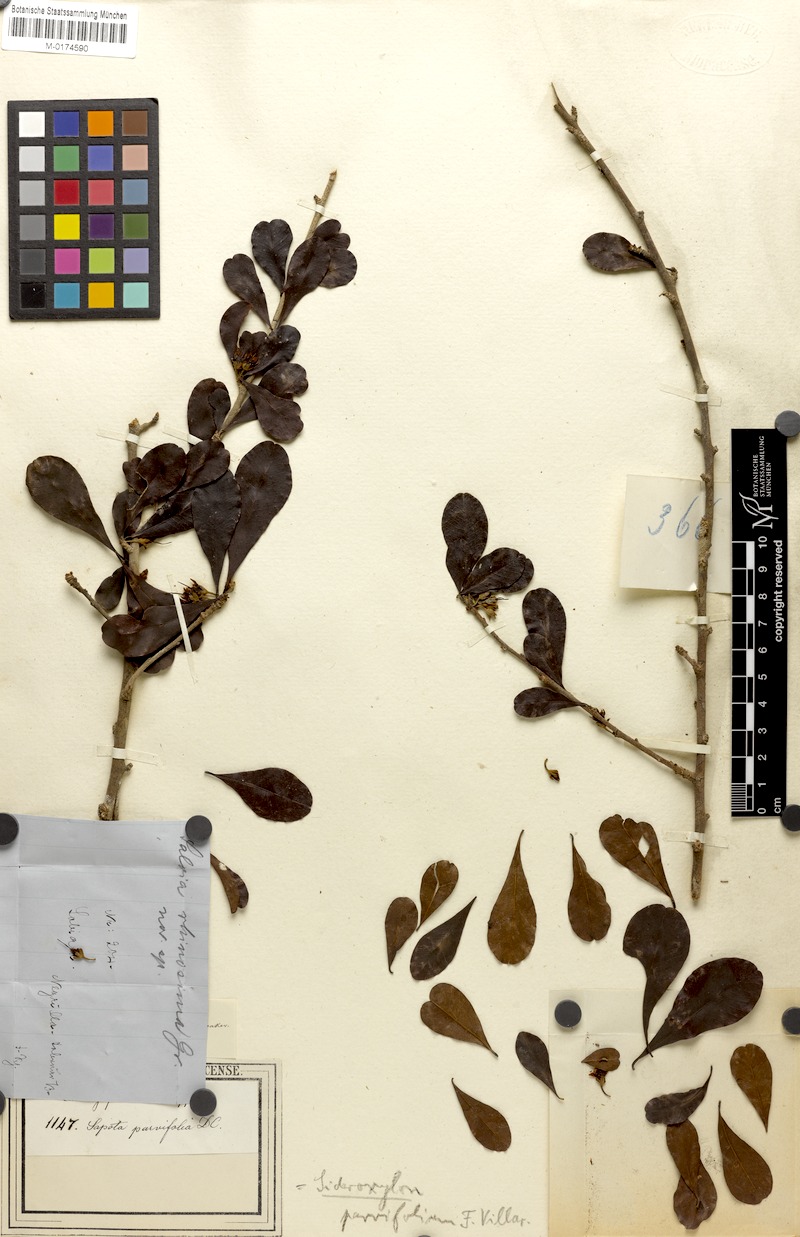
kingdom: Plantae
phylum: Tracheophyta
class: Magnoliopsida
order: Ericales
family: Sapotaceae
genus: Xantolis
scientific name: Xantolis parvifolia
